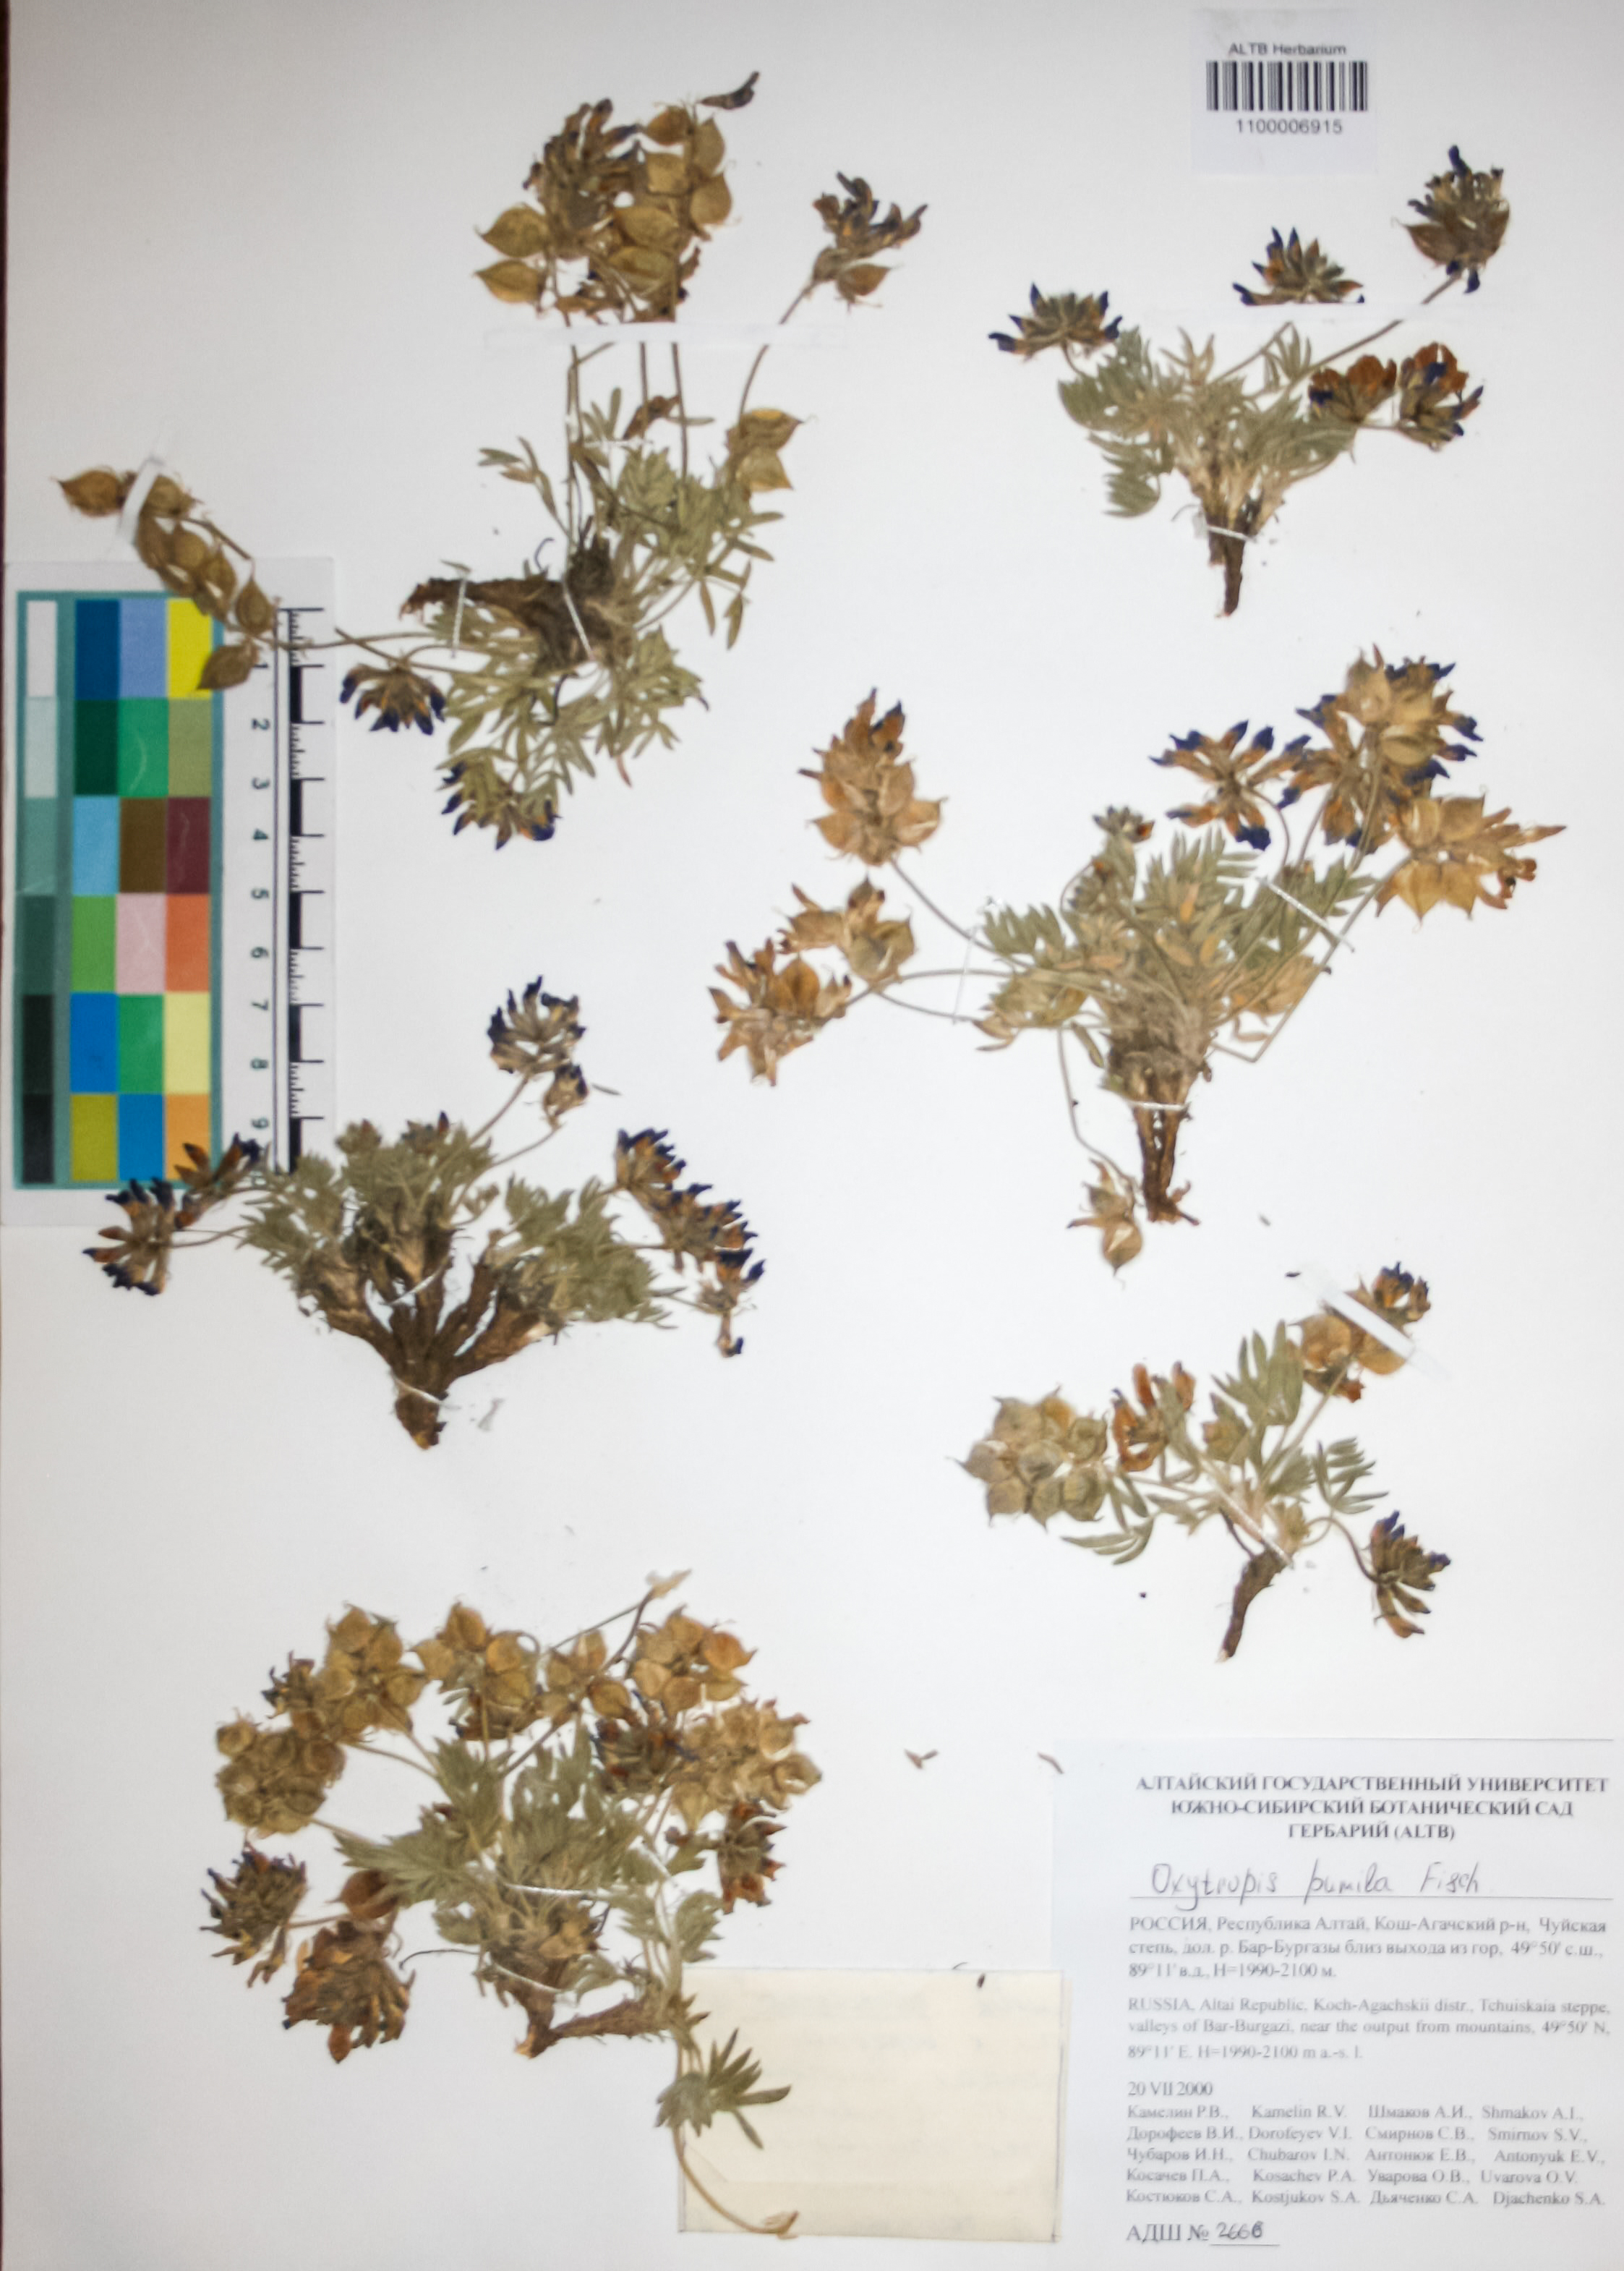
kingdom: Plantae
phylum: Tracheophyta
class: Magnoliopsida
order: Fabales
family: Fabaceae
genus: Oxytropis
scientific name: Oxytropis pumila
